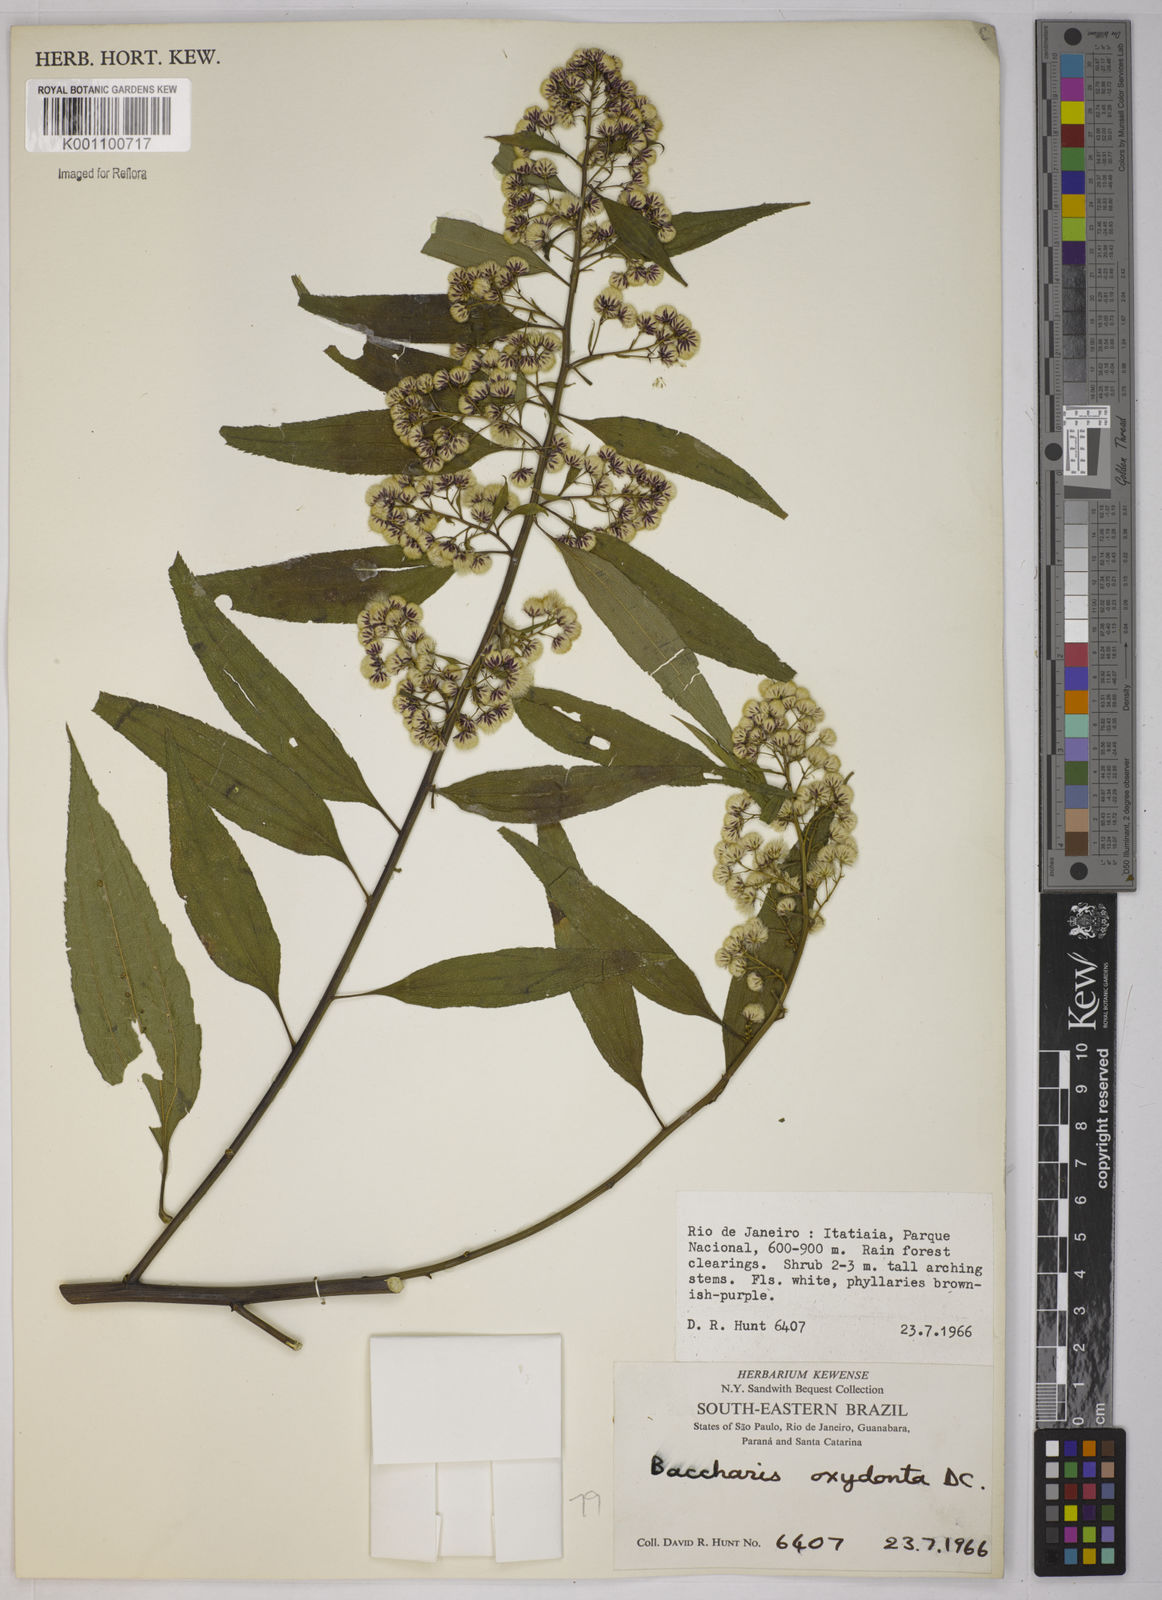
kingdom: Plantae
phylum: Tracheophyta
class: Magnoliopsida
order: Asterales
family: Asteraceae
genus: Baccharis
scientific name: Baccharis oxyodonta
